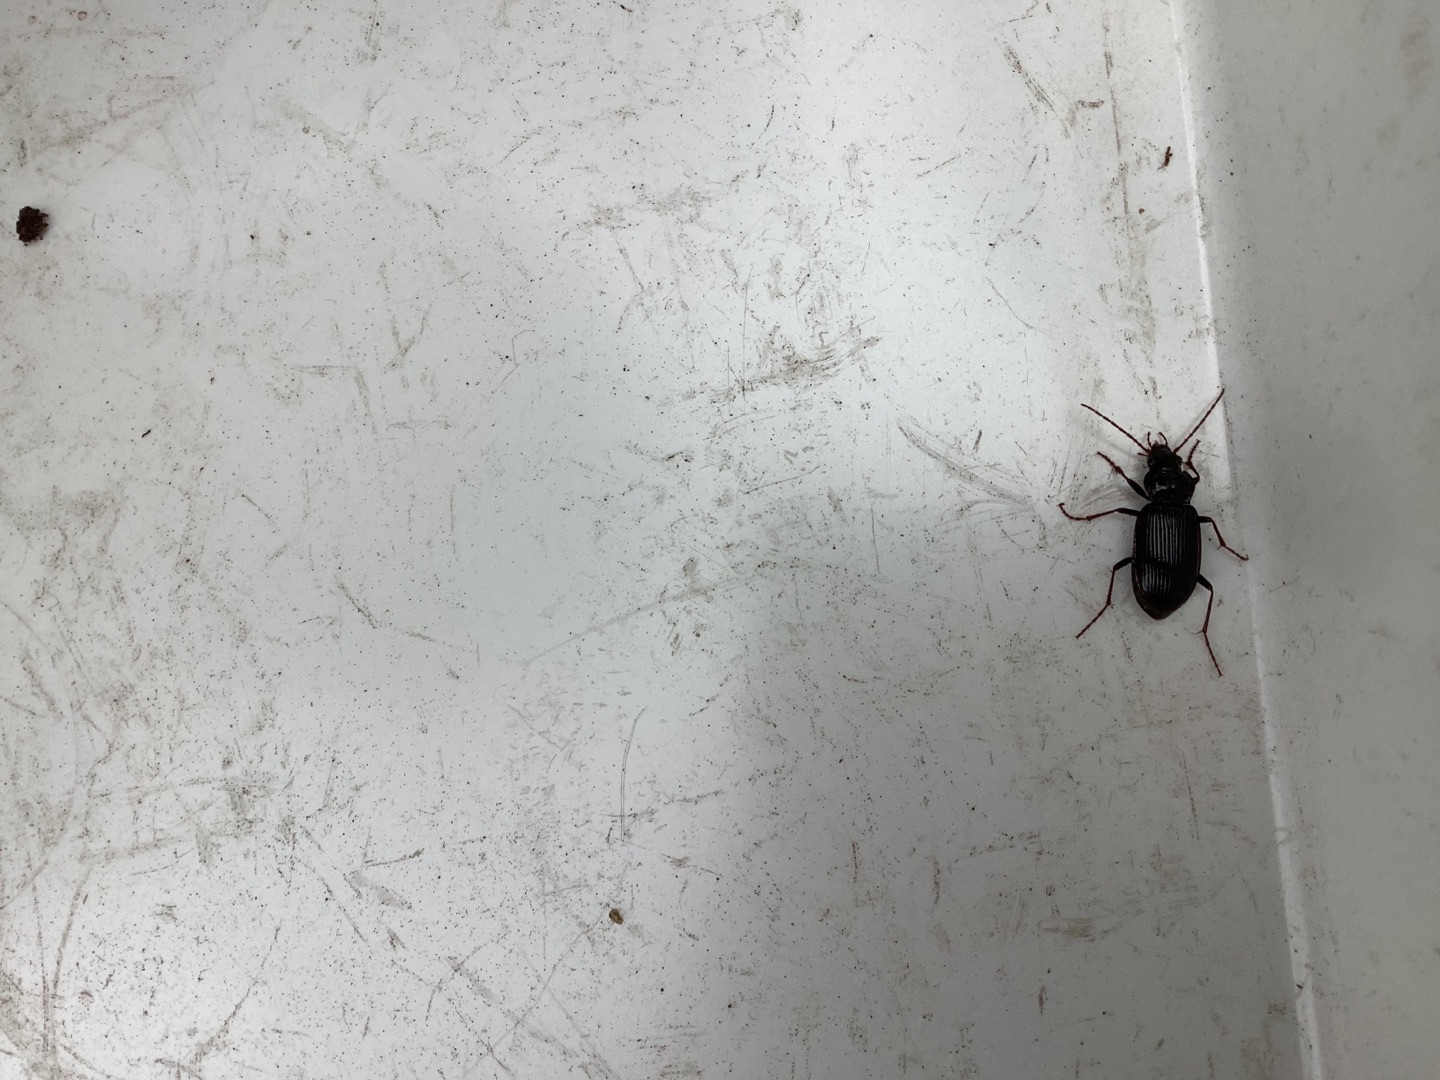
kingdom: Animalia
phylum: Arthropoda
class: Insecta
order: Coleoptera
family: Carabidae
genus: Nebria
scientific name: Nebria brevicollis
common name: Skovfladløber
